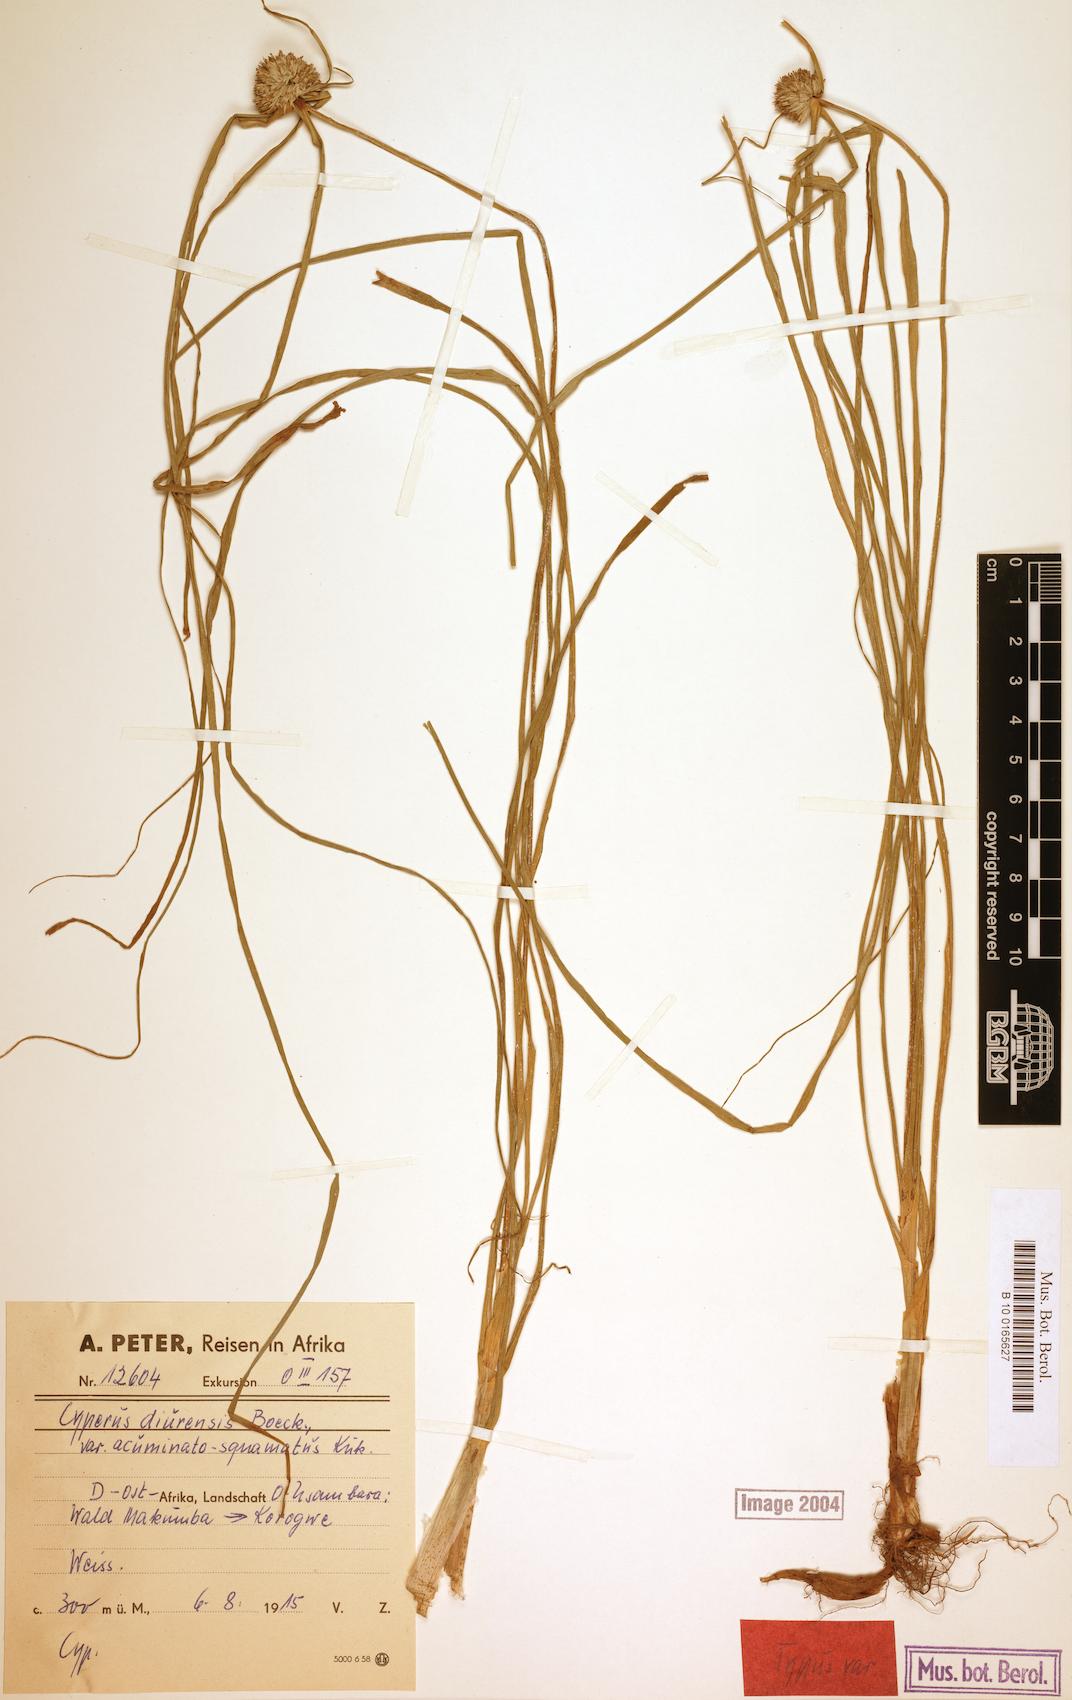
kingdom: Plantae
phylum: Tracheophyta
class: Liliopsida
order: Poales
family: Cyperaceae
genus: Cyperus
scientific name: Cyperus diurensis
